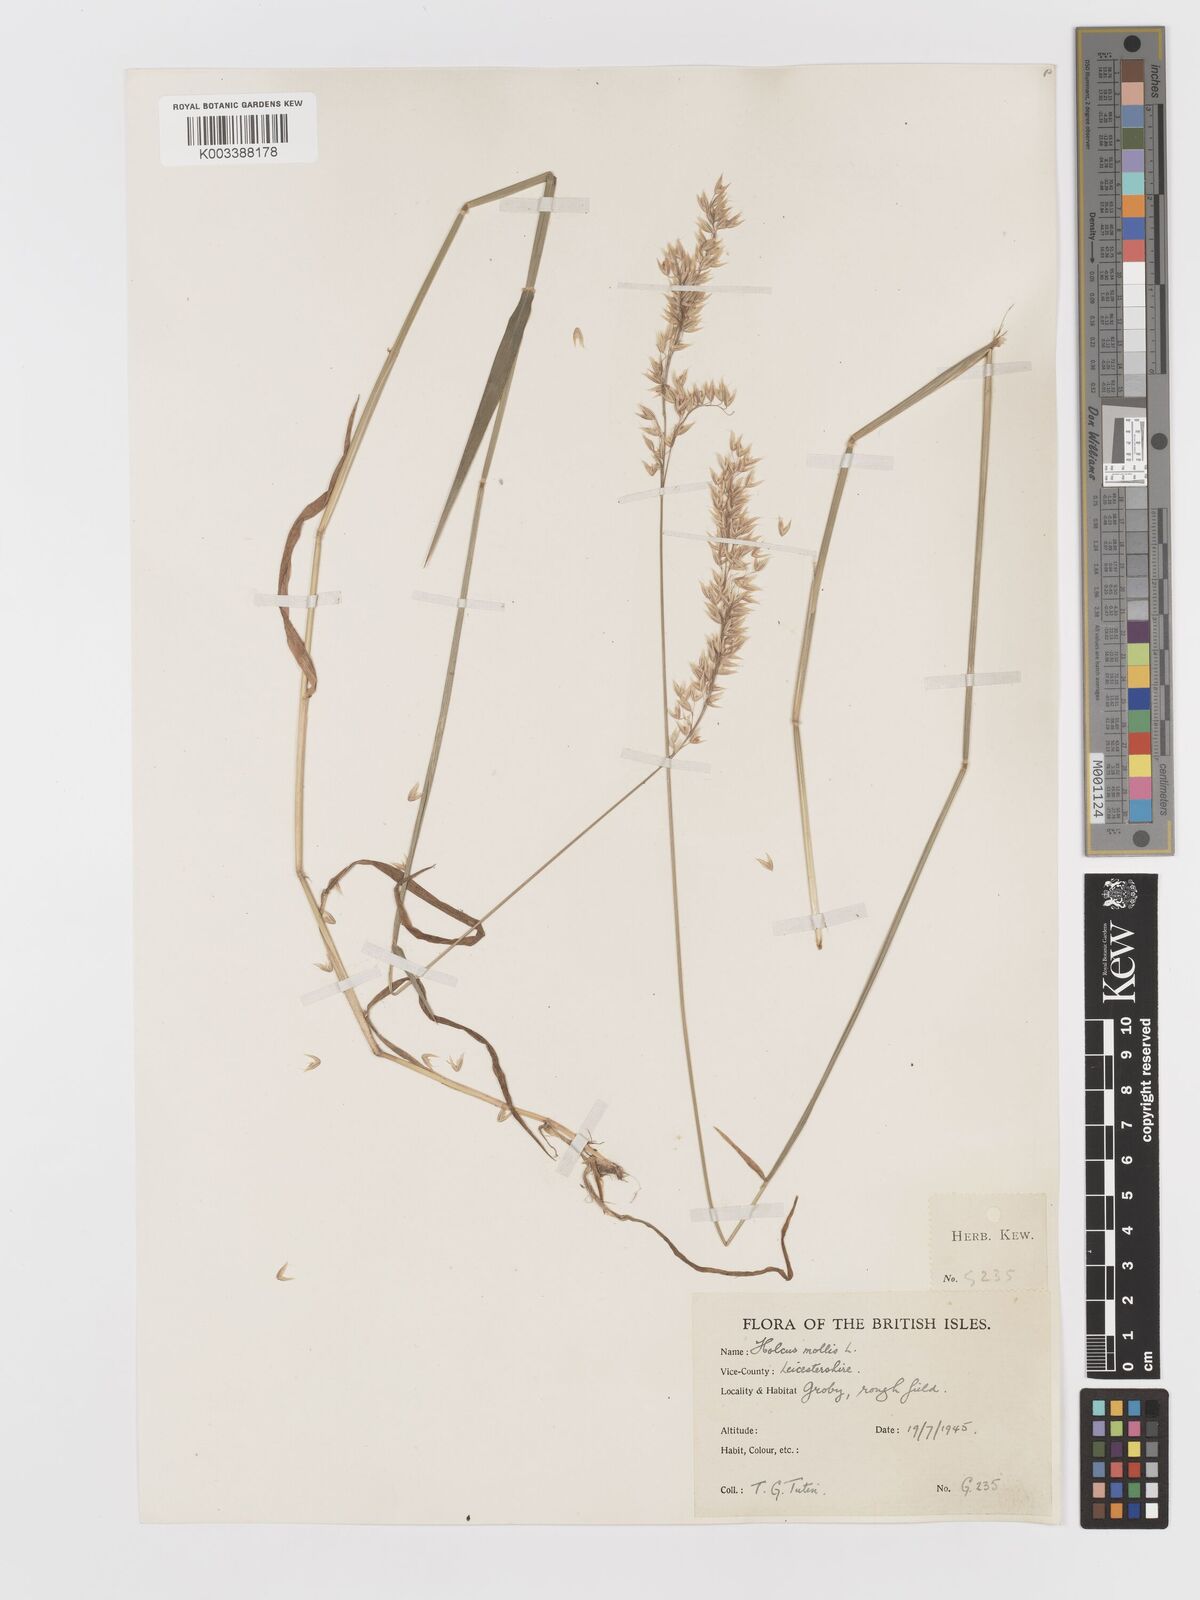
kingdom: Plantae
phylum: Tracheophyta
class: Liliopsida
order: Poales
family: Poaceae
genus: Holcus
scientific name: Holcus mollis
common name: Creeping velvetgrass
